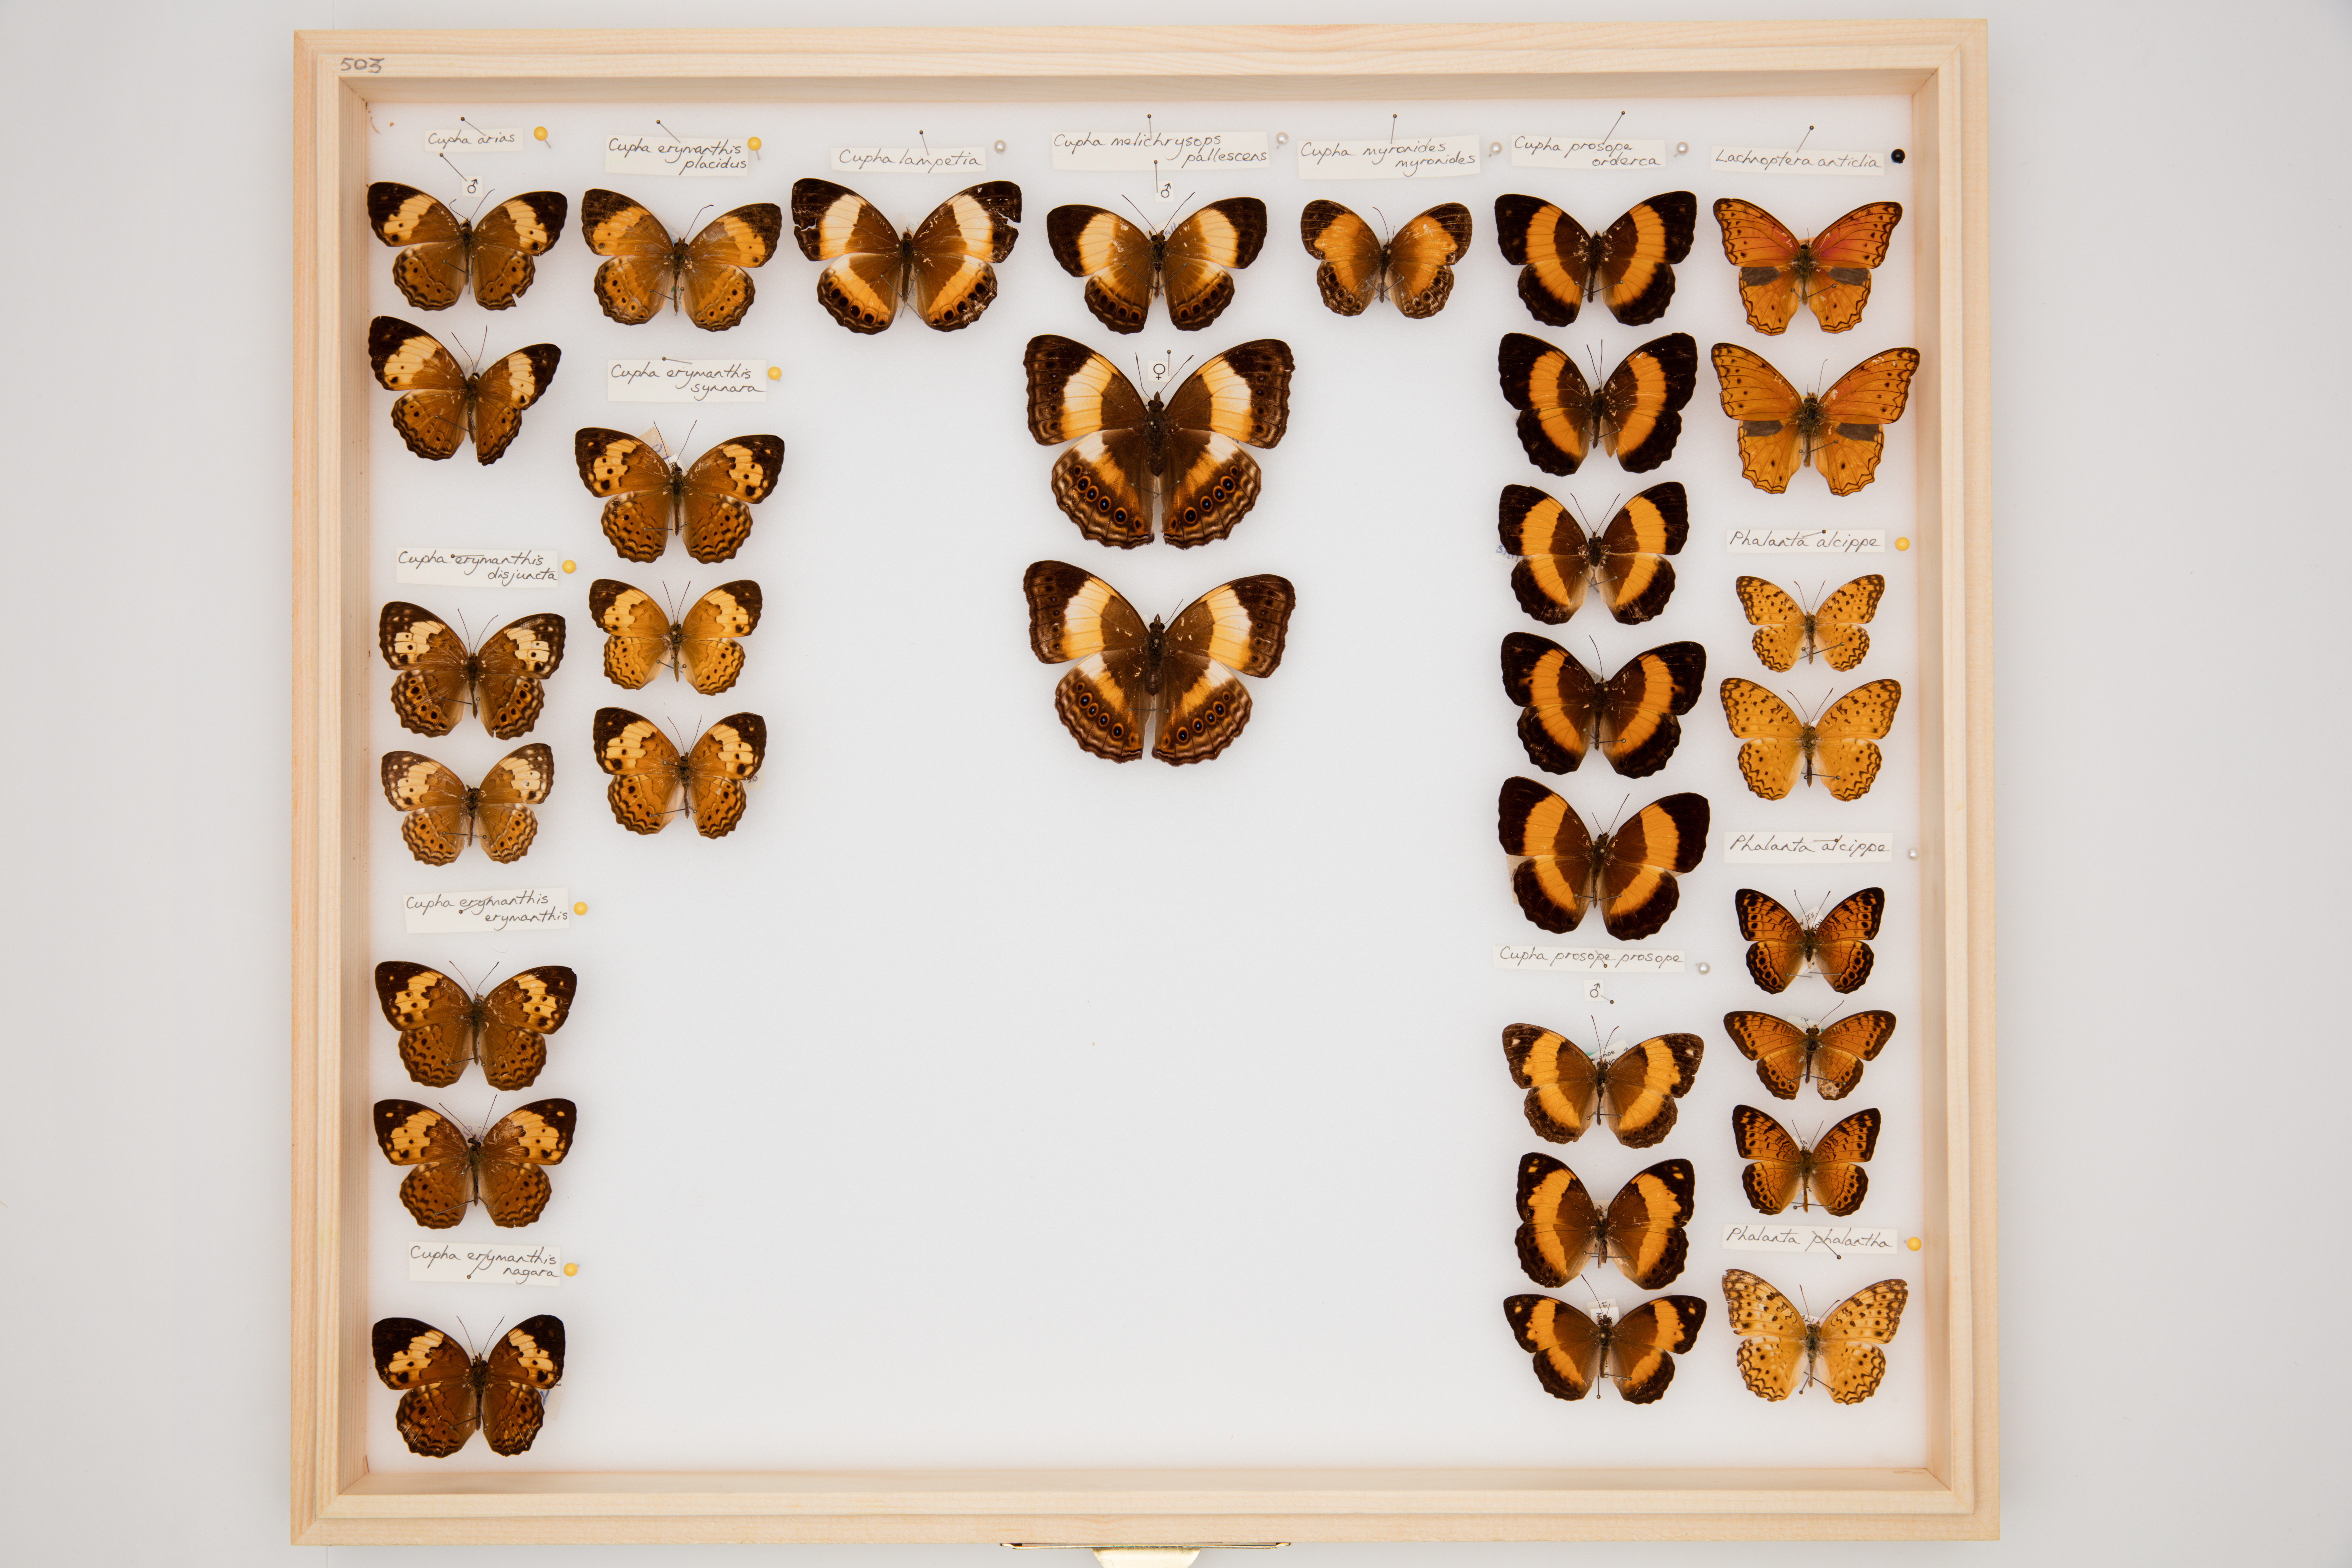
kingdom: Animalia
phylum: Arthropoda
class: Insecta
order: Lepidoptera
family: Nymphalidae
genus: Cupha
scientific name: Cupha prosope
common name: Bordered rustic
